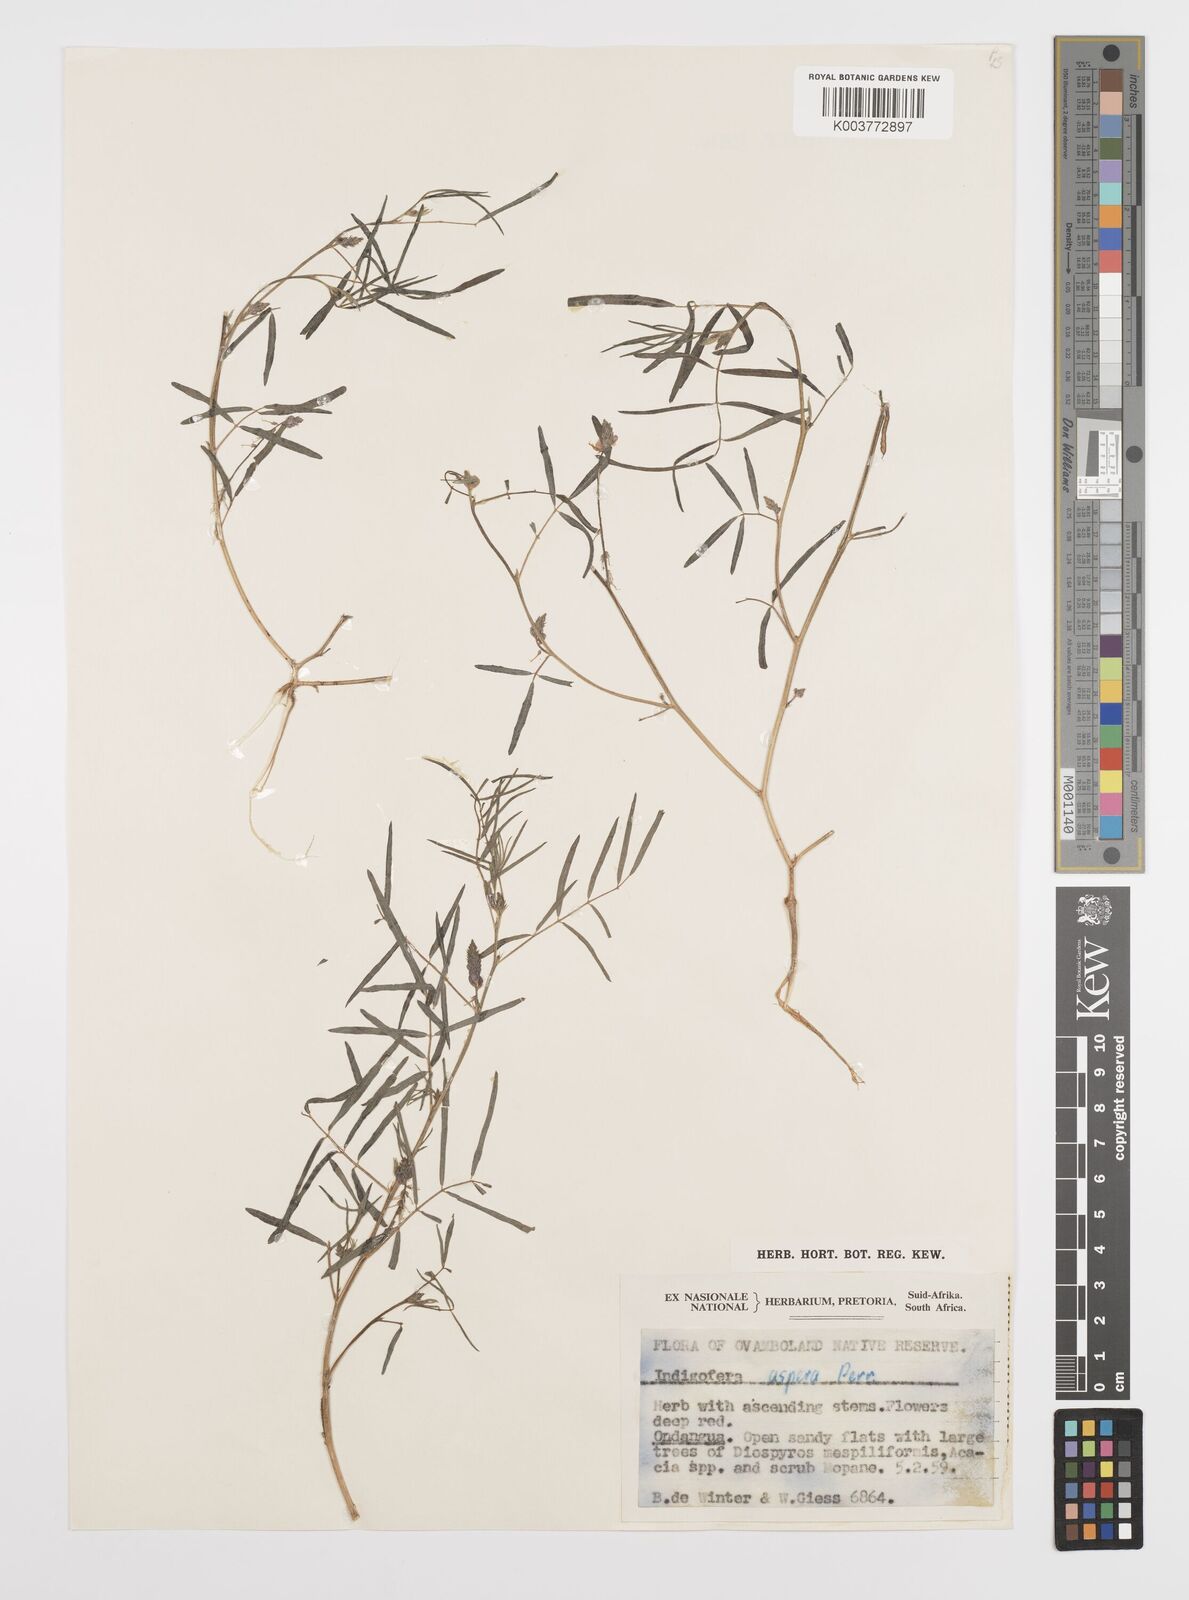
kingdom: Plantae
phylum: Tracheophyta
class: Magnoliopsida
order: Fabales
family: Fabaceae
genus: Indigofera
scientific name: Indigofera charlieriana
